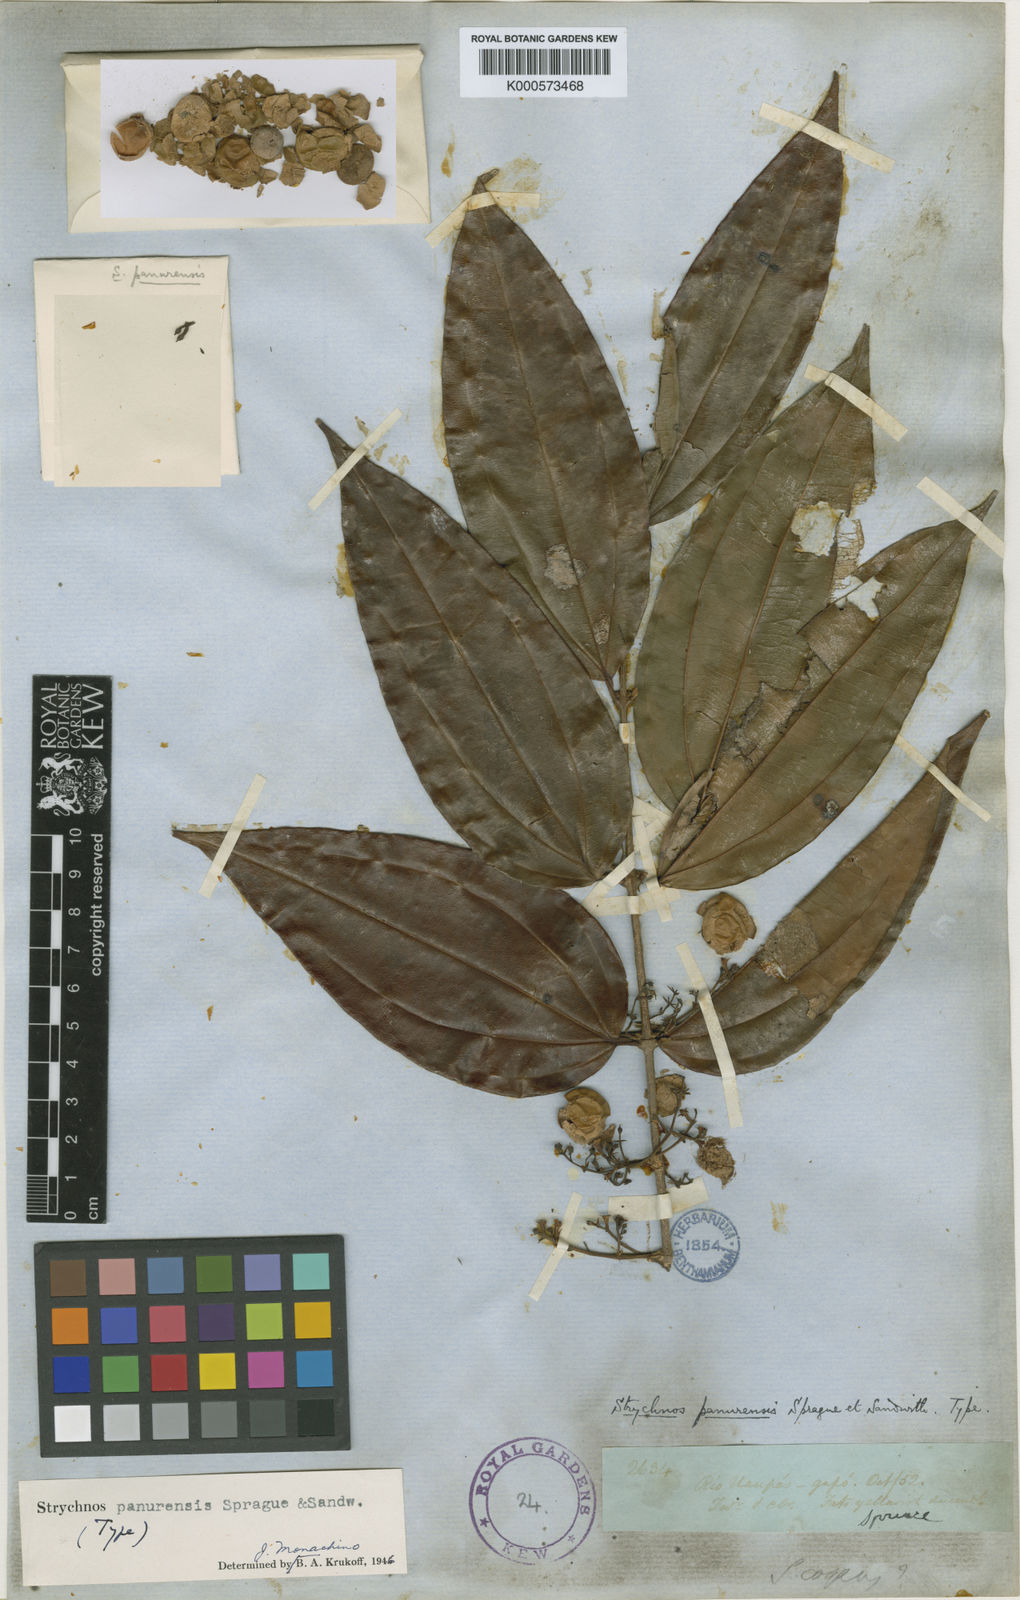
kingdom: Plantae
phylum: Tracheophyta
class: Magnoliopsida
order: Gentianales
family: Loganiaceae
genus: Strychnos
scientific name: Strychnos gubleri
